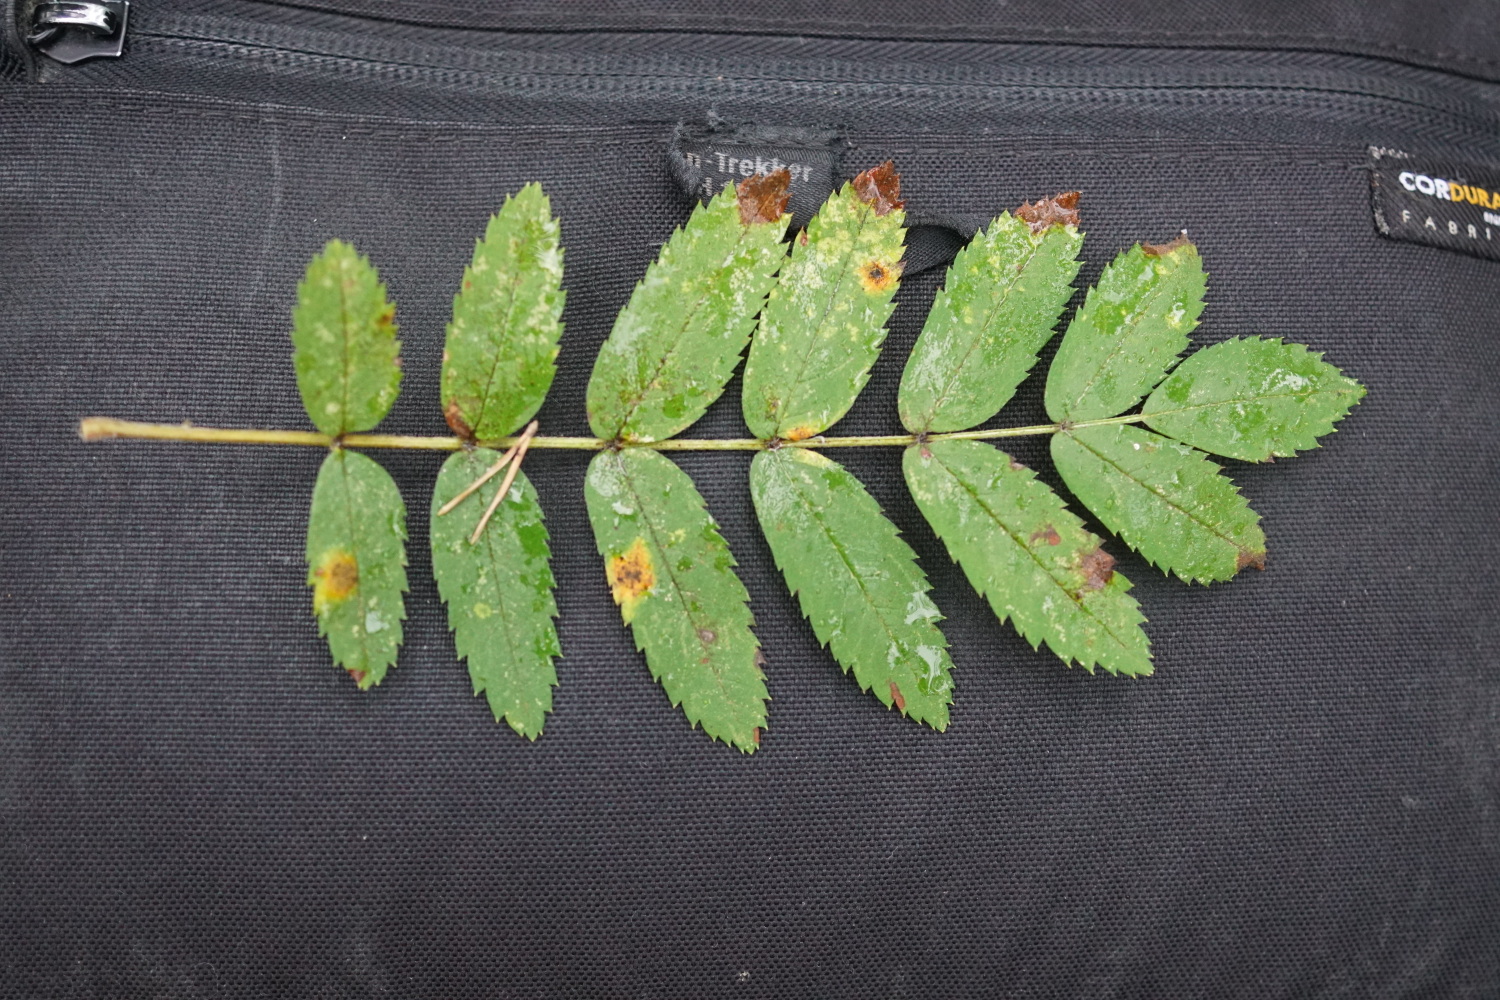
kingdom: Fungi
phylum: Basidiomycota
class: Pucciniomycetes
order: Pucciniales
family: Gymnosporangiaceae
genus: Gymnosporangium
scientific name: Gymnosporangium cornutum
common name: rønnehorn-bævrerust
